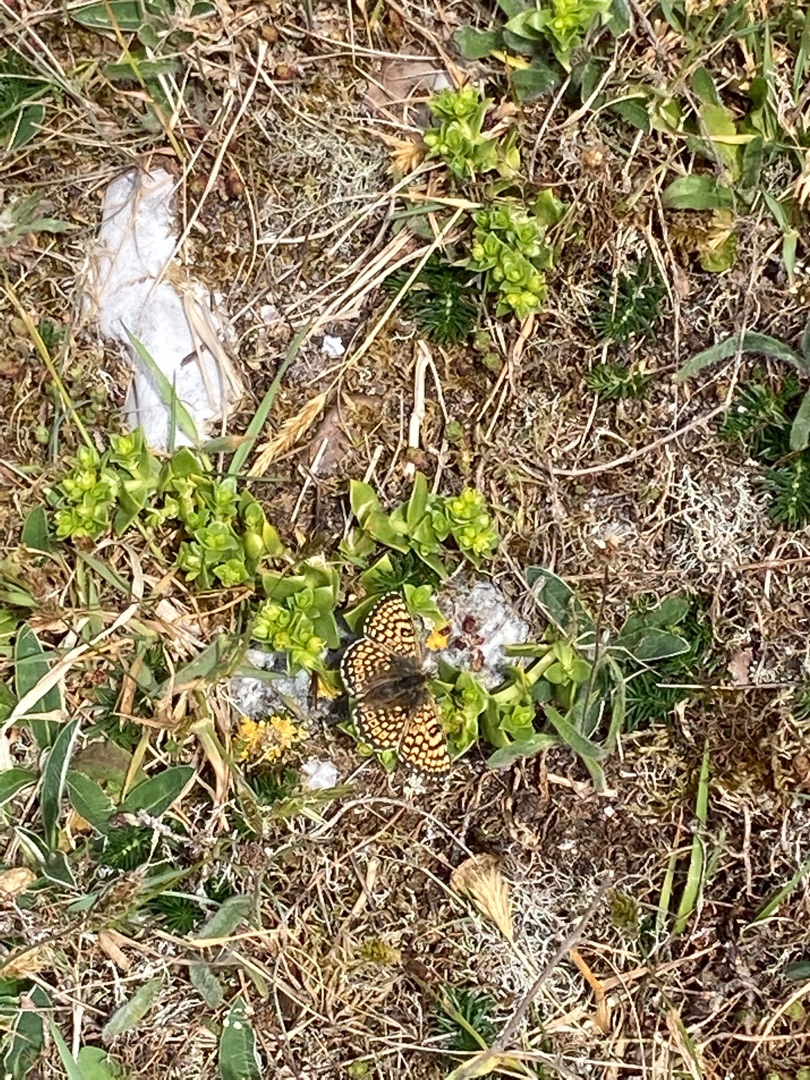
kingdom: Animalia
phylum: Arthropoda
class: Insecta
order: Lepidoptera
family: Nymphalidae
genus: Melitaea
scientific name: Melitaea cinxia
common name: Okkergul pletvinge
